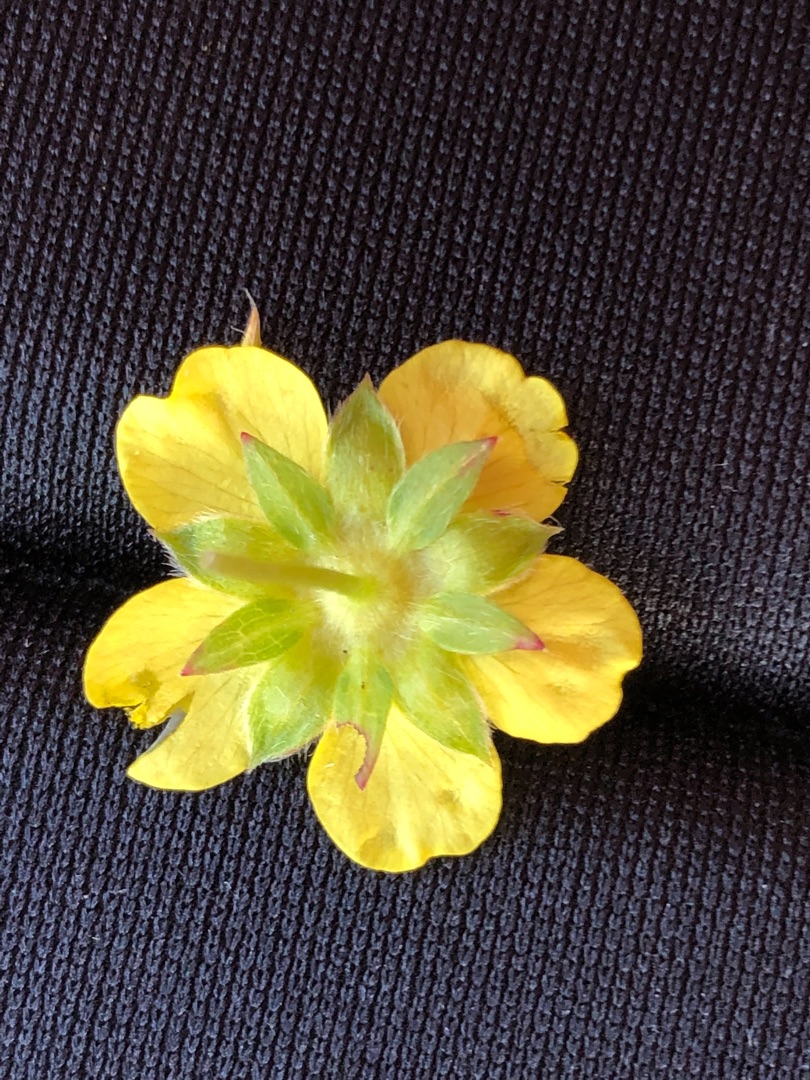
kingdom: Plantae
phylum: Tracheophyta
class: Magnoliopsida
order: Rosales
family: Rosaceae
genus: Potentilla
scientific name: Potentilla reptans
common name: Krybende potentil
